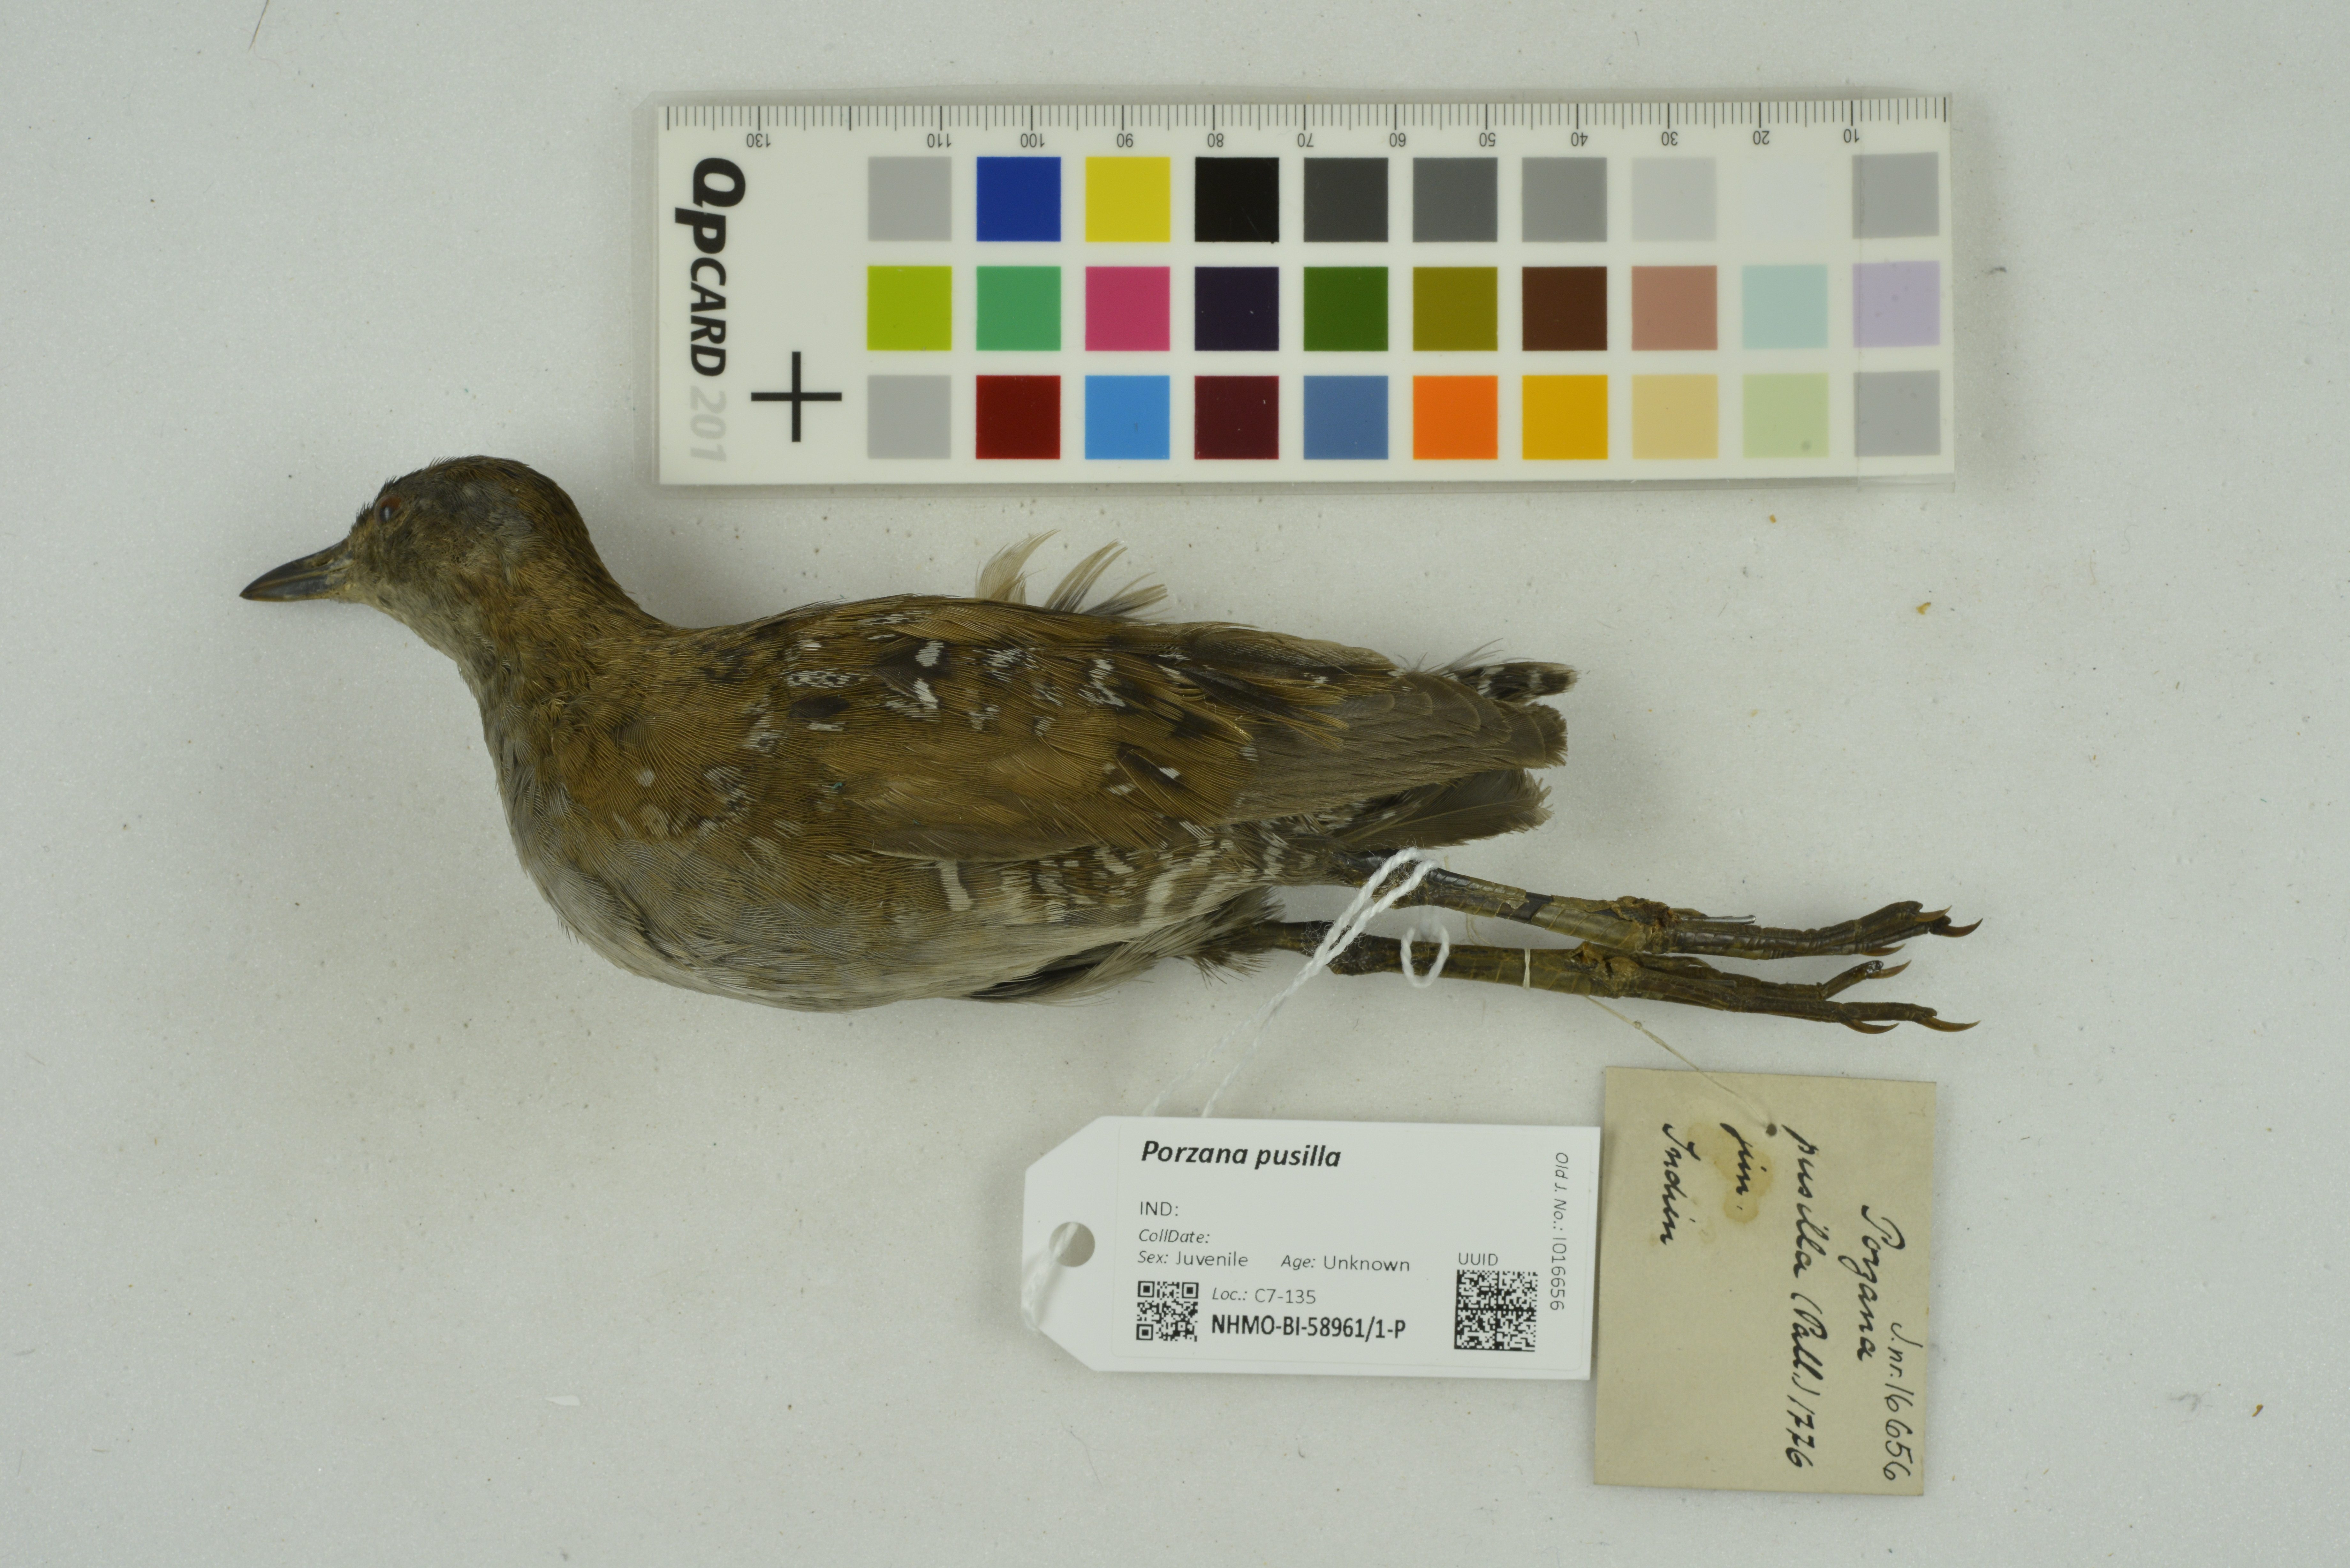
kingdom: Animalia
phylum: Chordata
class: Aves
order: Gruiformes
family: Rallidae
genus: Porzana
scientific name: Porzana pusilla
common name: Baillon's crake
